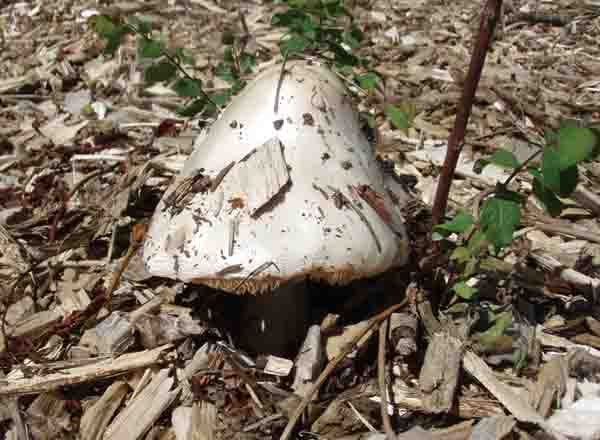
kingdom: Fungi
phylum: Basidiomycota
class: Agaricomycetes
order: Agaricales
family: Pluteaceae
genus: Volvopluteus
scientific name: Volvopluteus gloiocephalus
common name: høj posesvamp
